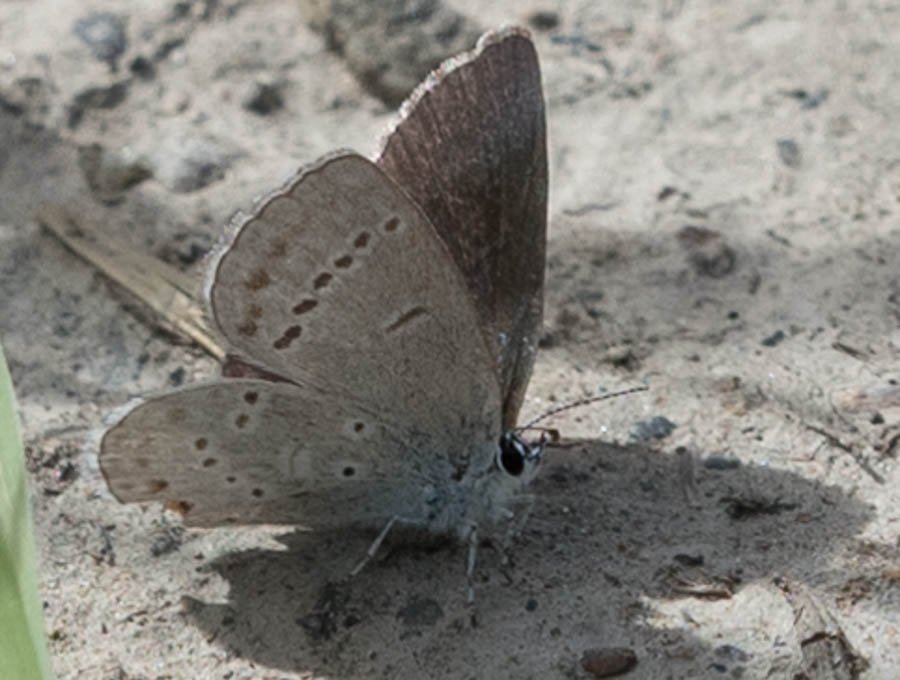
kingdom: Animalia
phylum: Arthropoda
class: Insecta
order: Lepidoptera
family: Lycaenidae
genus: Plebejus
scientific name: Plebejus saepiolus
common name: Greenish Blue
